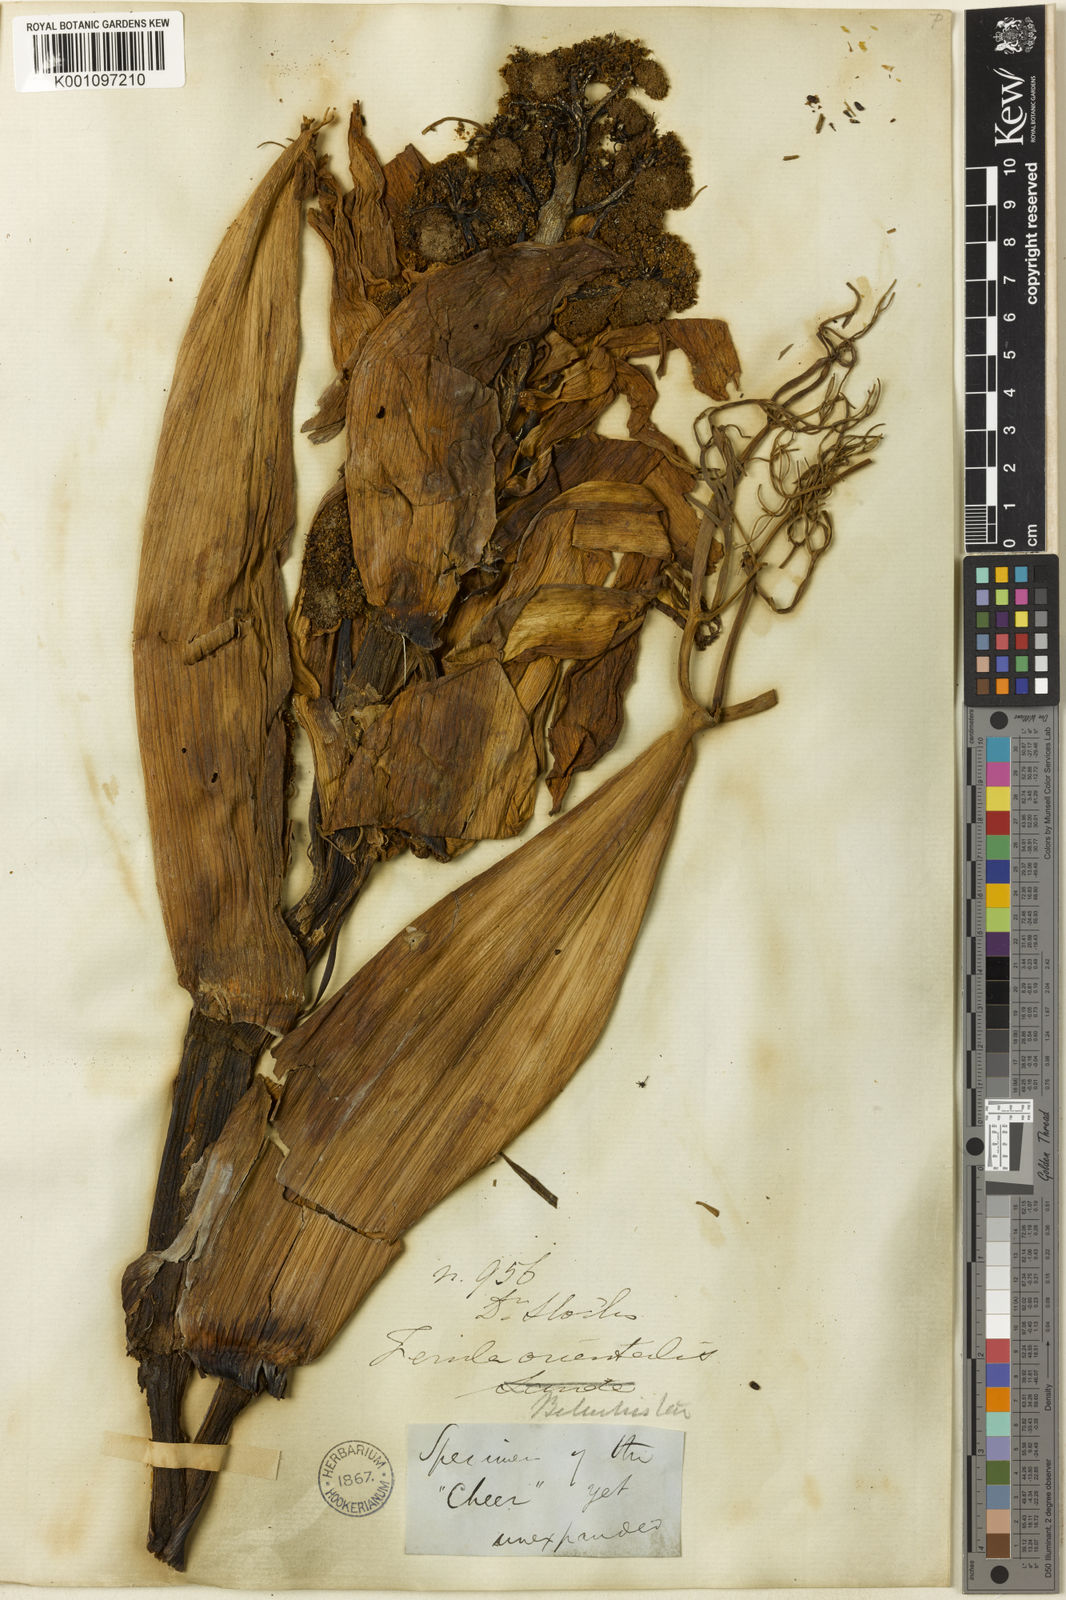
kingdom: Plantae
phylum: Tracheophyta
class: Magnoliopsida
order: Apiales
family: Apiaceae
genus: Ferula
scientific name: Ferula oopoda
